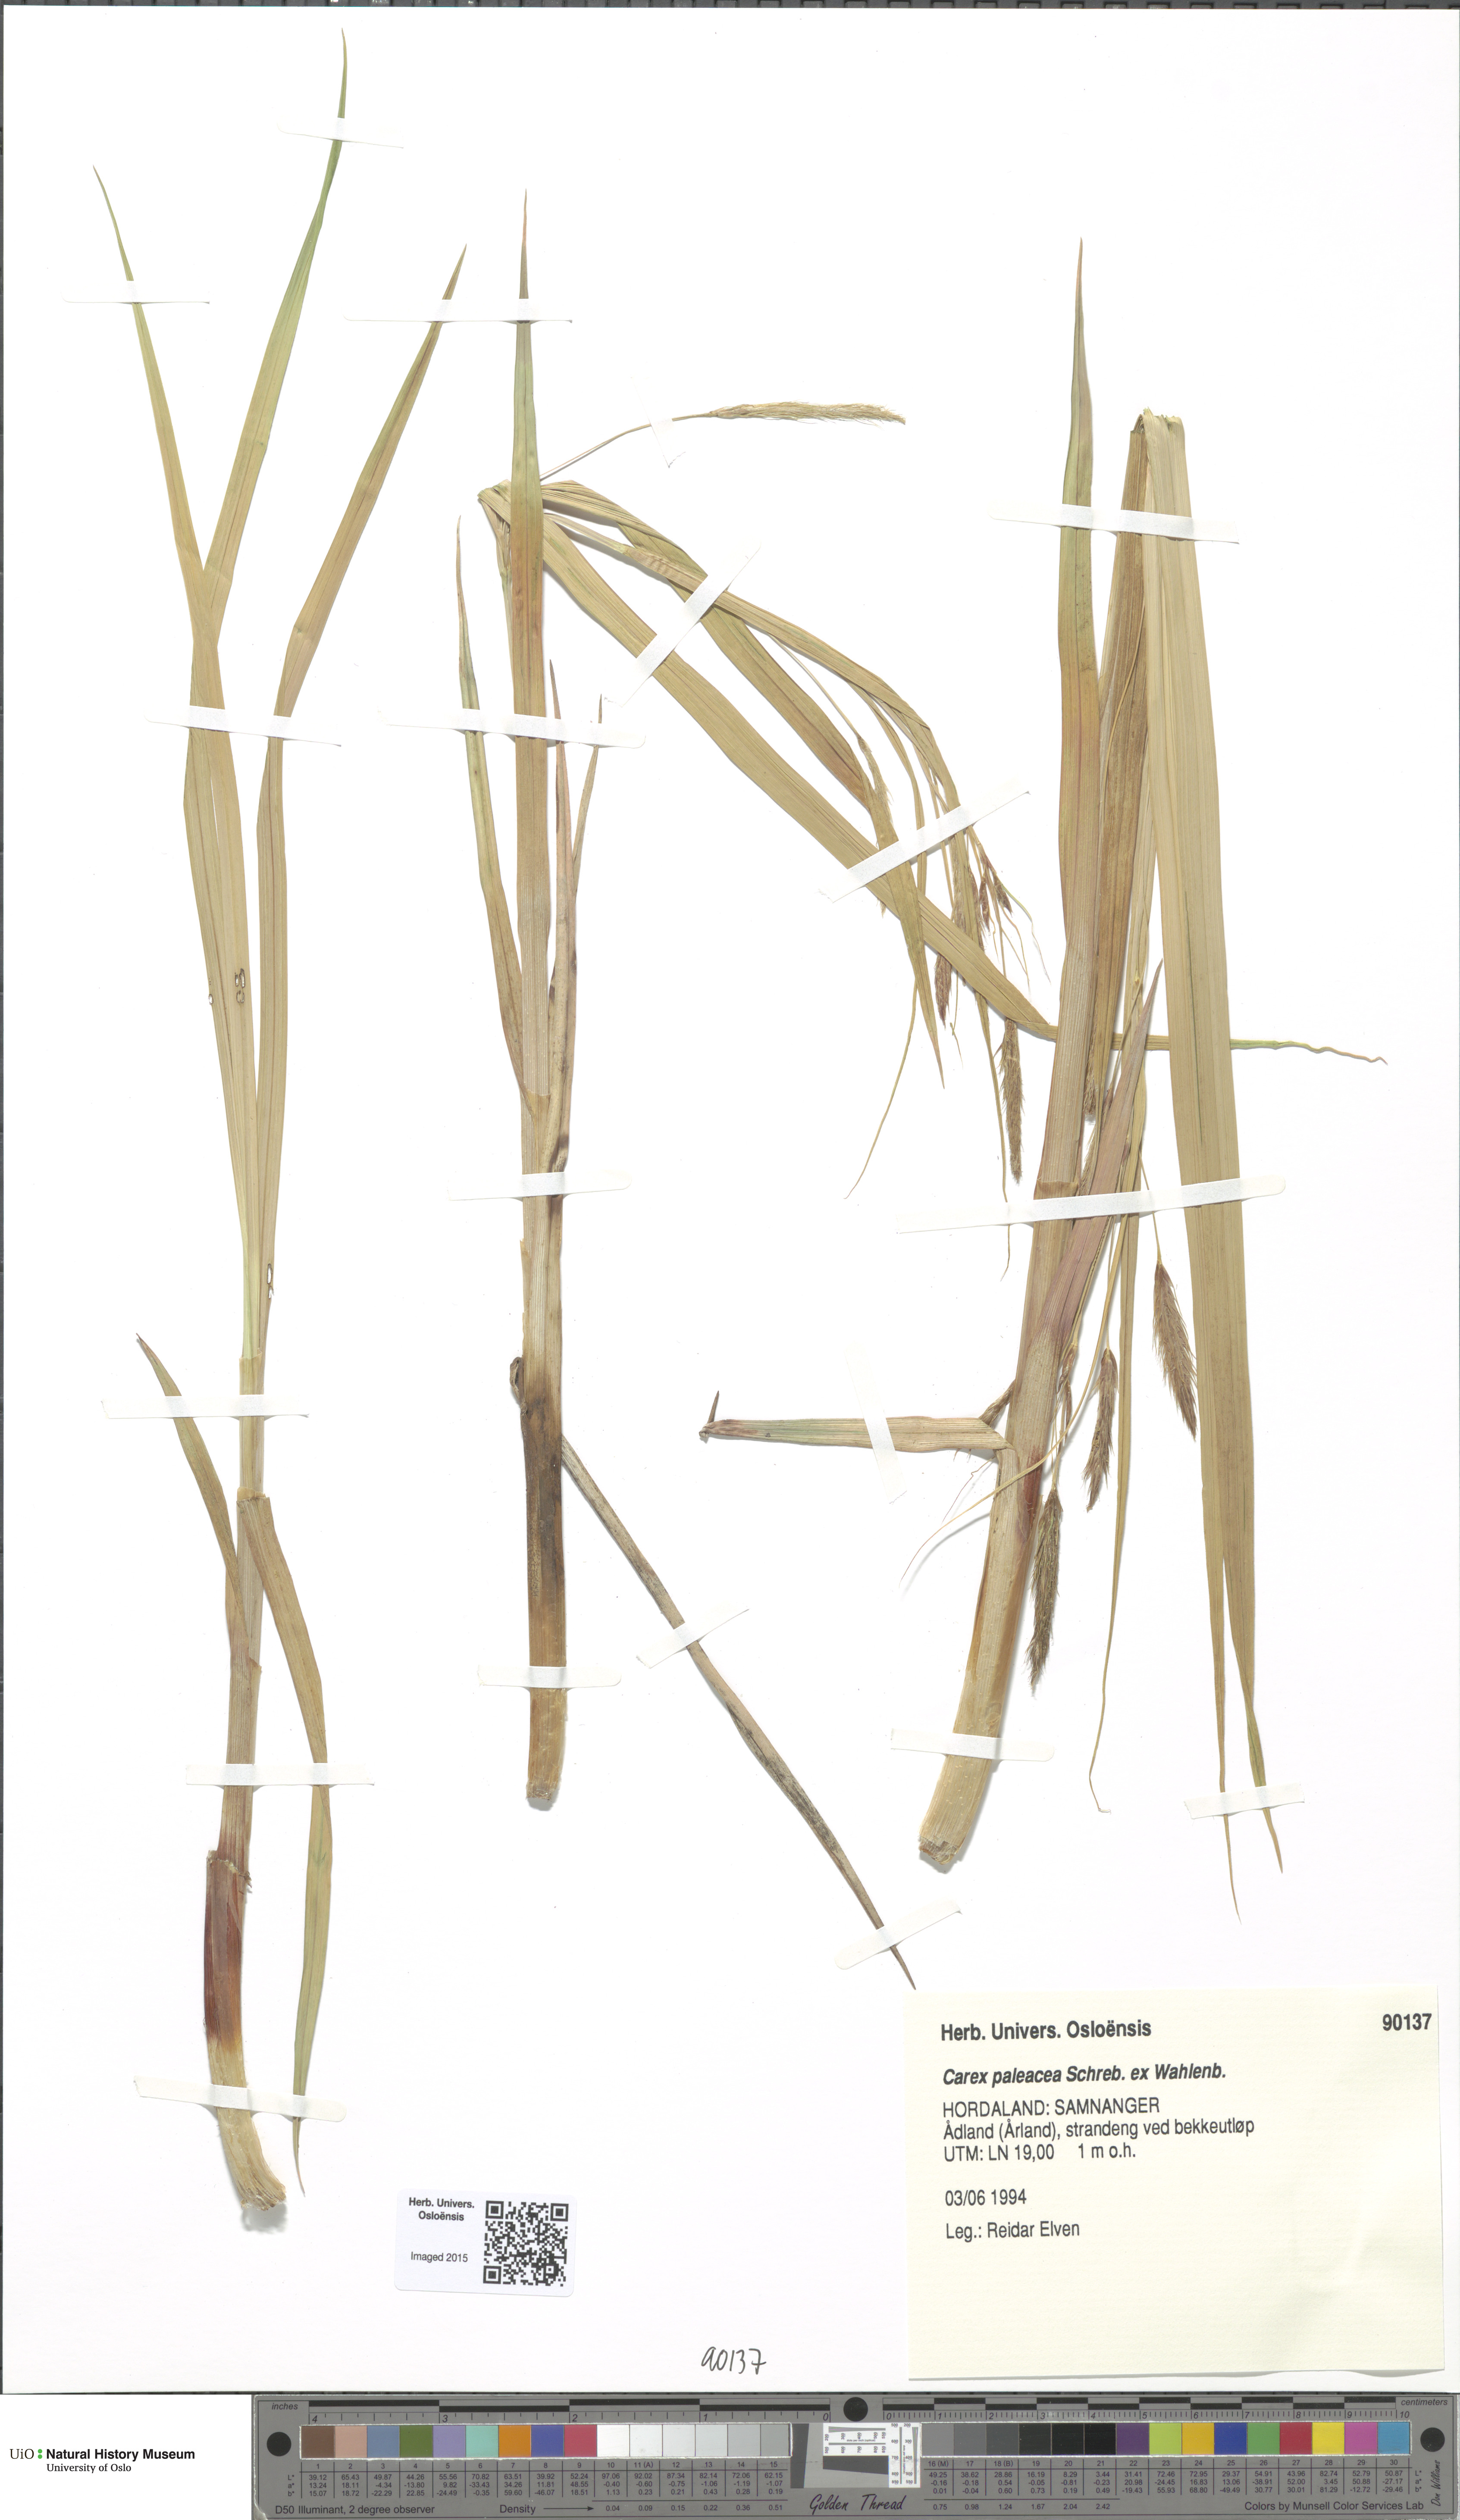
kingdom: Plantae
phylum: Tracheophyta
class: Liliopsida
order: Poales
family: Cyperaceae
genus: Carex
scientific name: Carex paleacea
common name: Chaffy sedge
